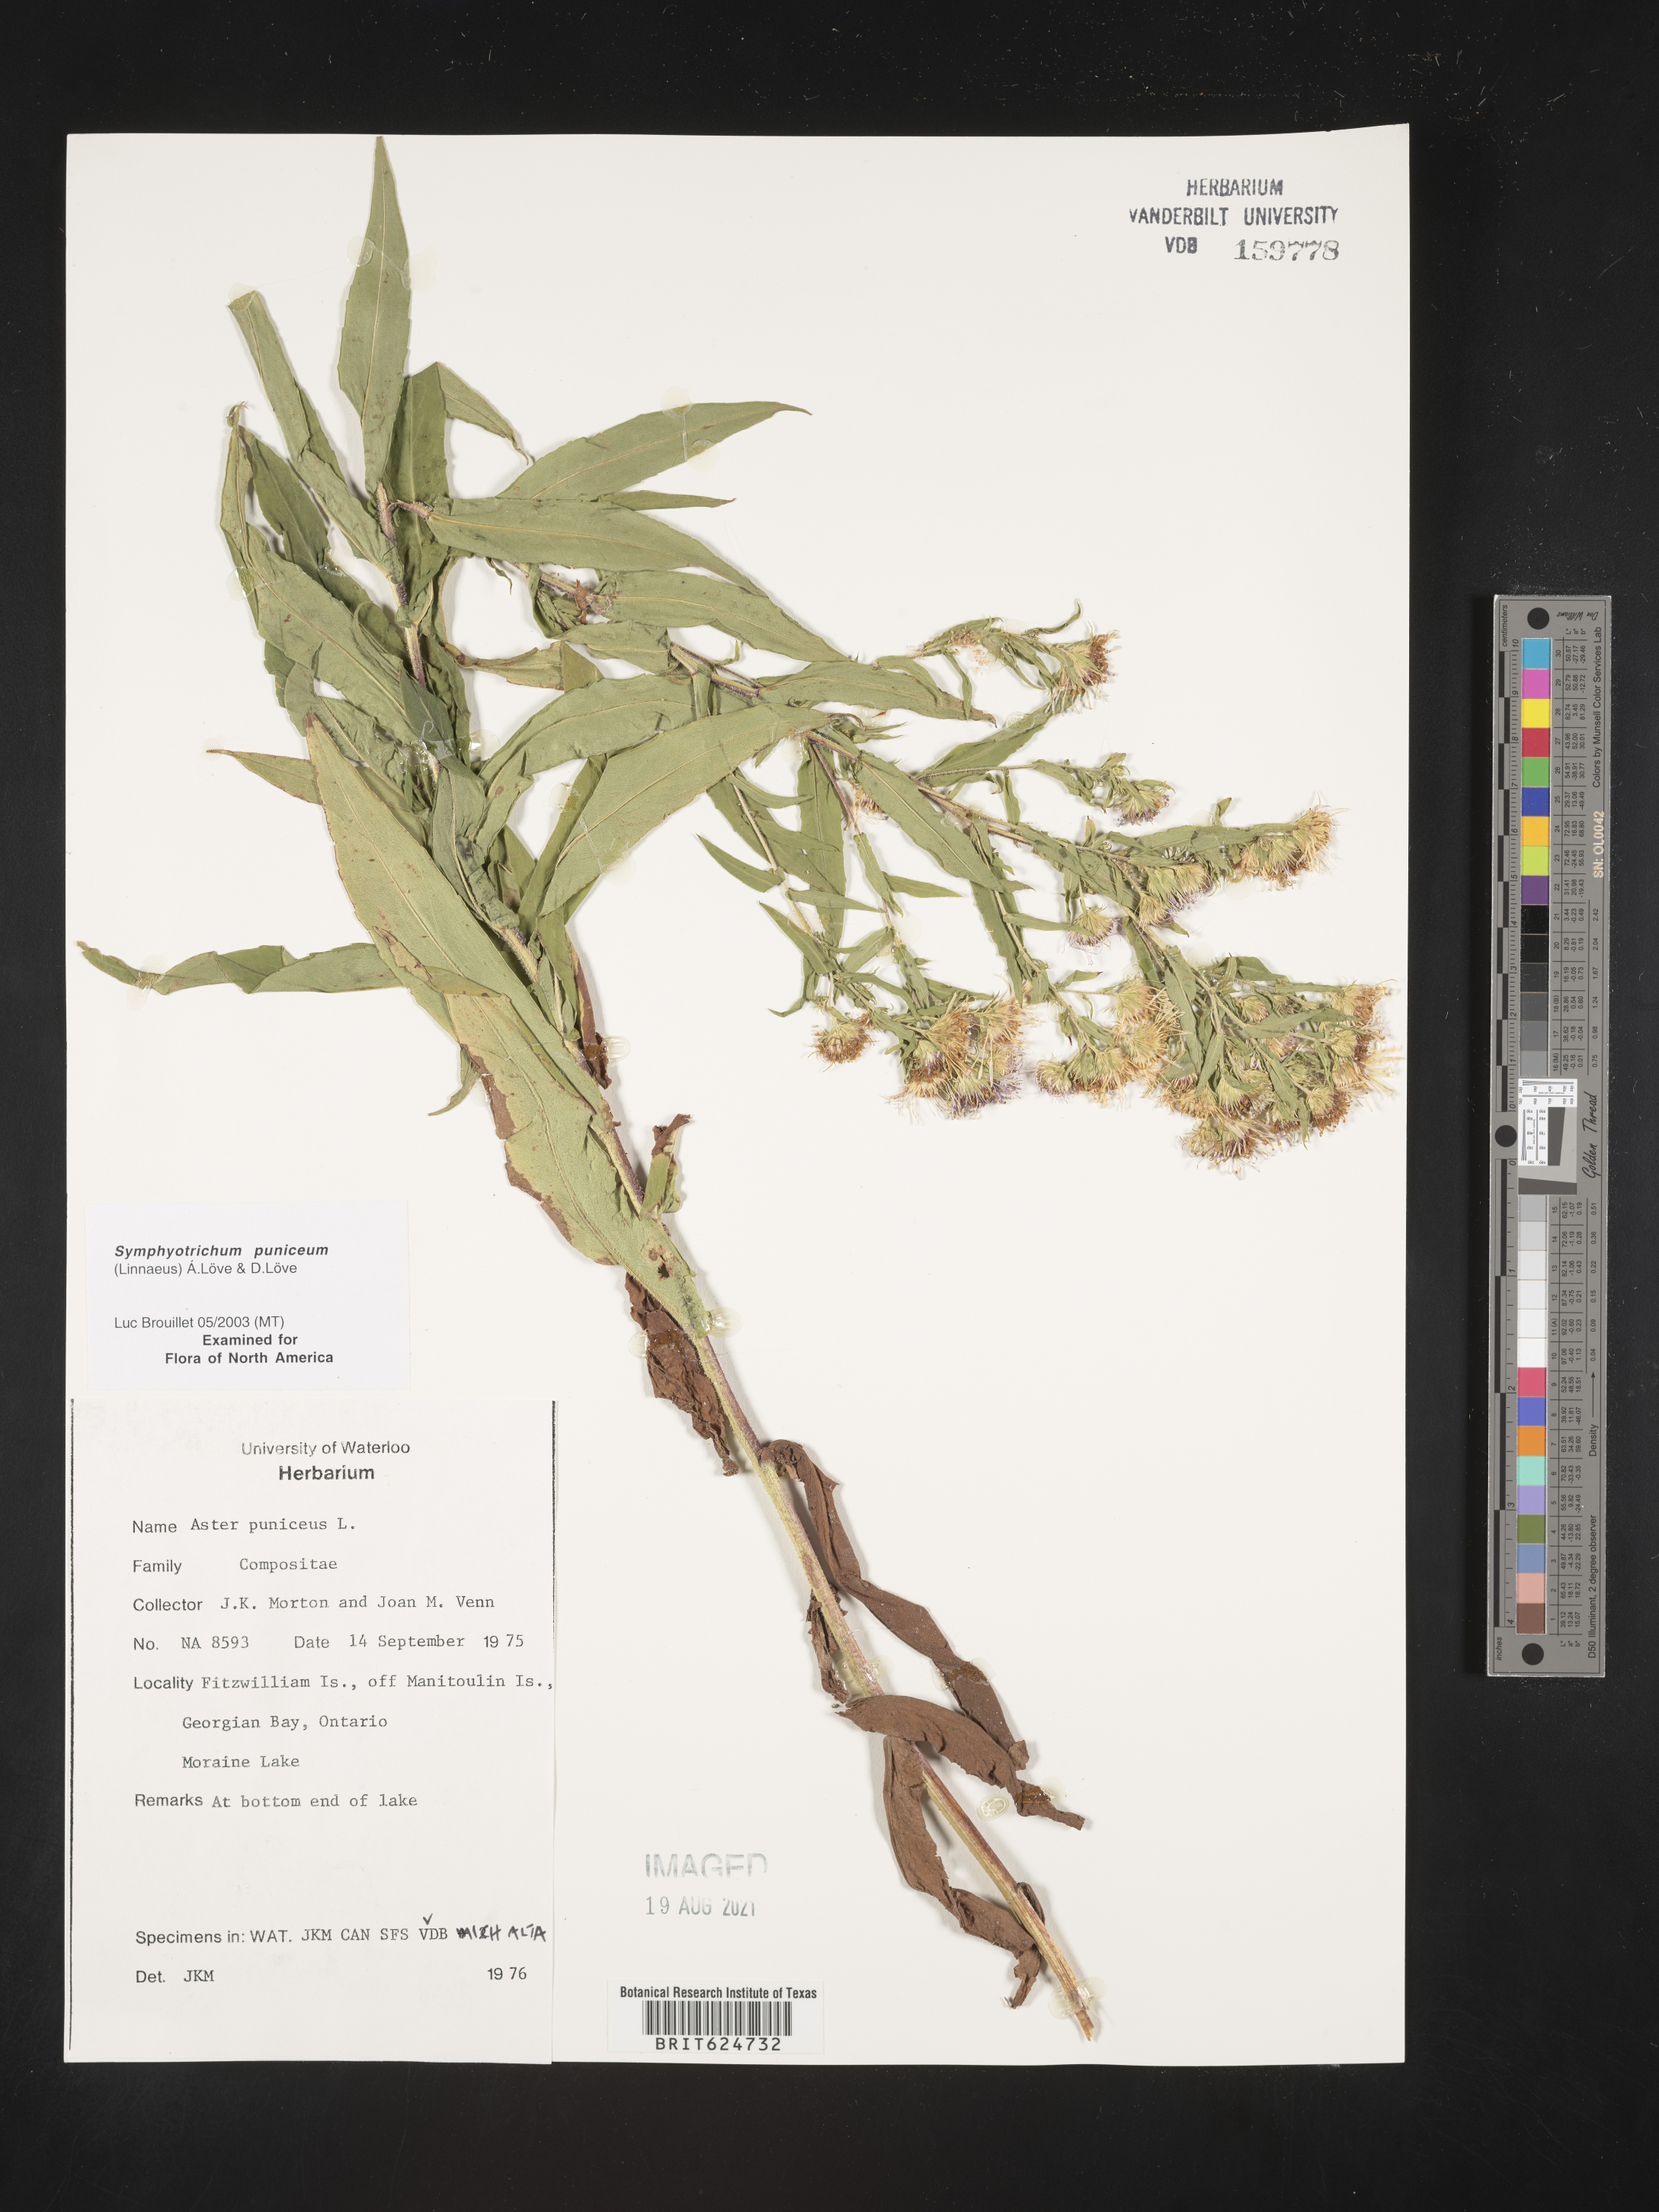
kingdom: Plantae
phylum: Tracheophyta
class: Magnoliopsida
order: Asterales
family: Asteraceae
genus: Symphyotrichum
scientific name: Symphyotrichum puniceum
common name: Bog aster
